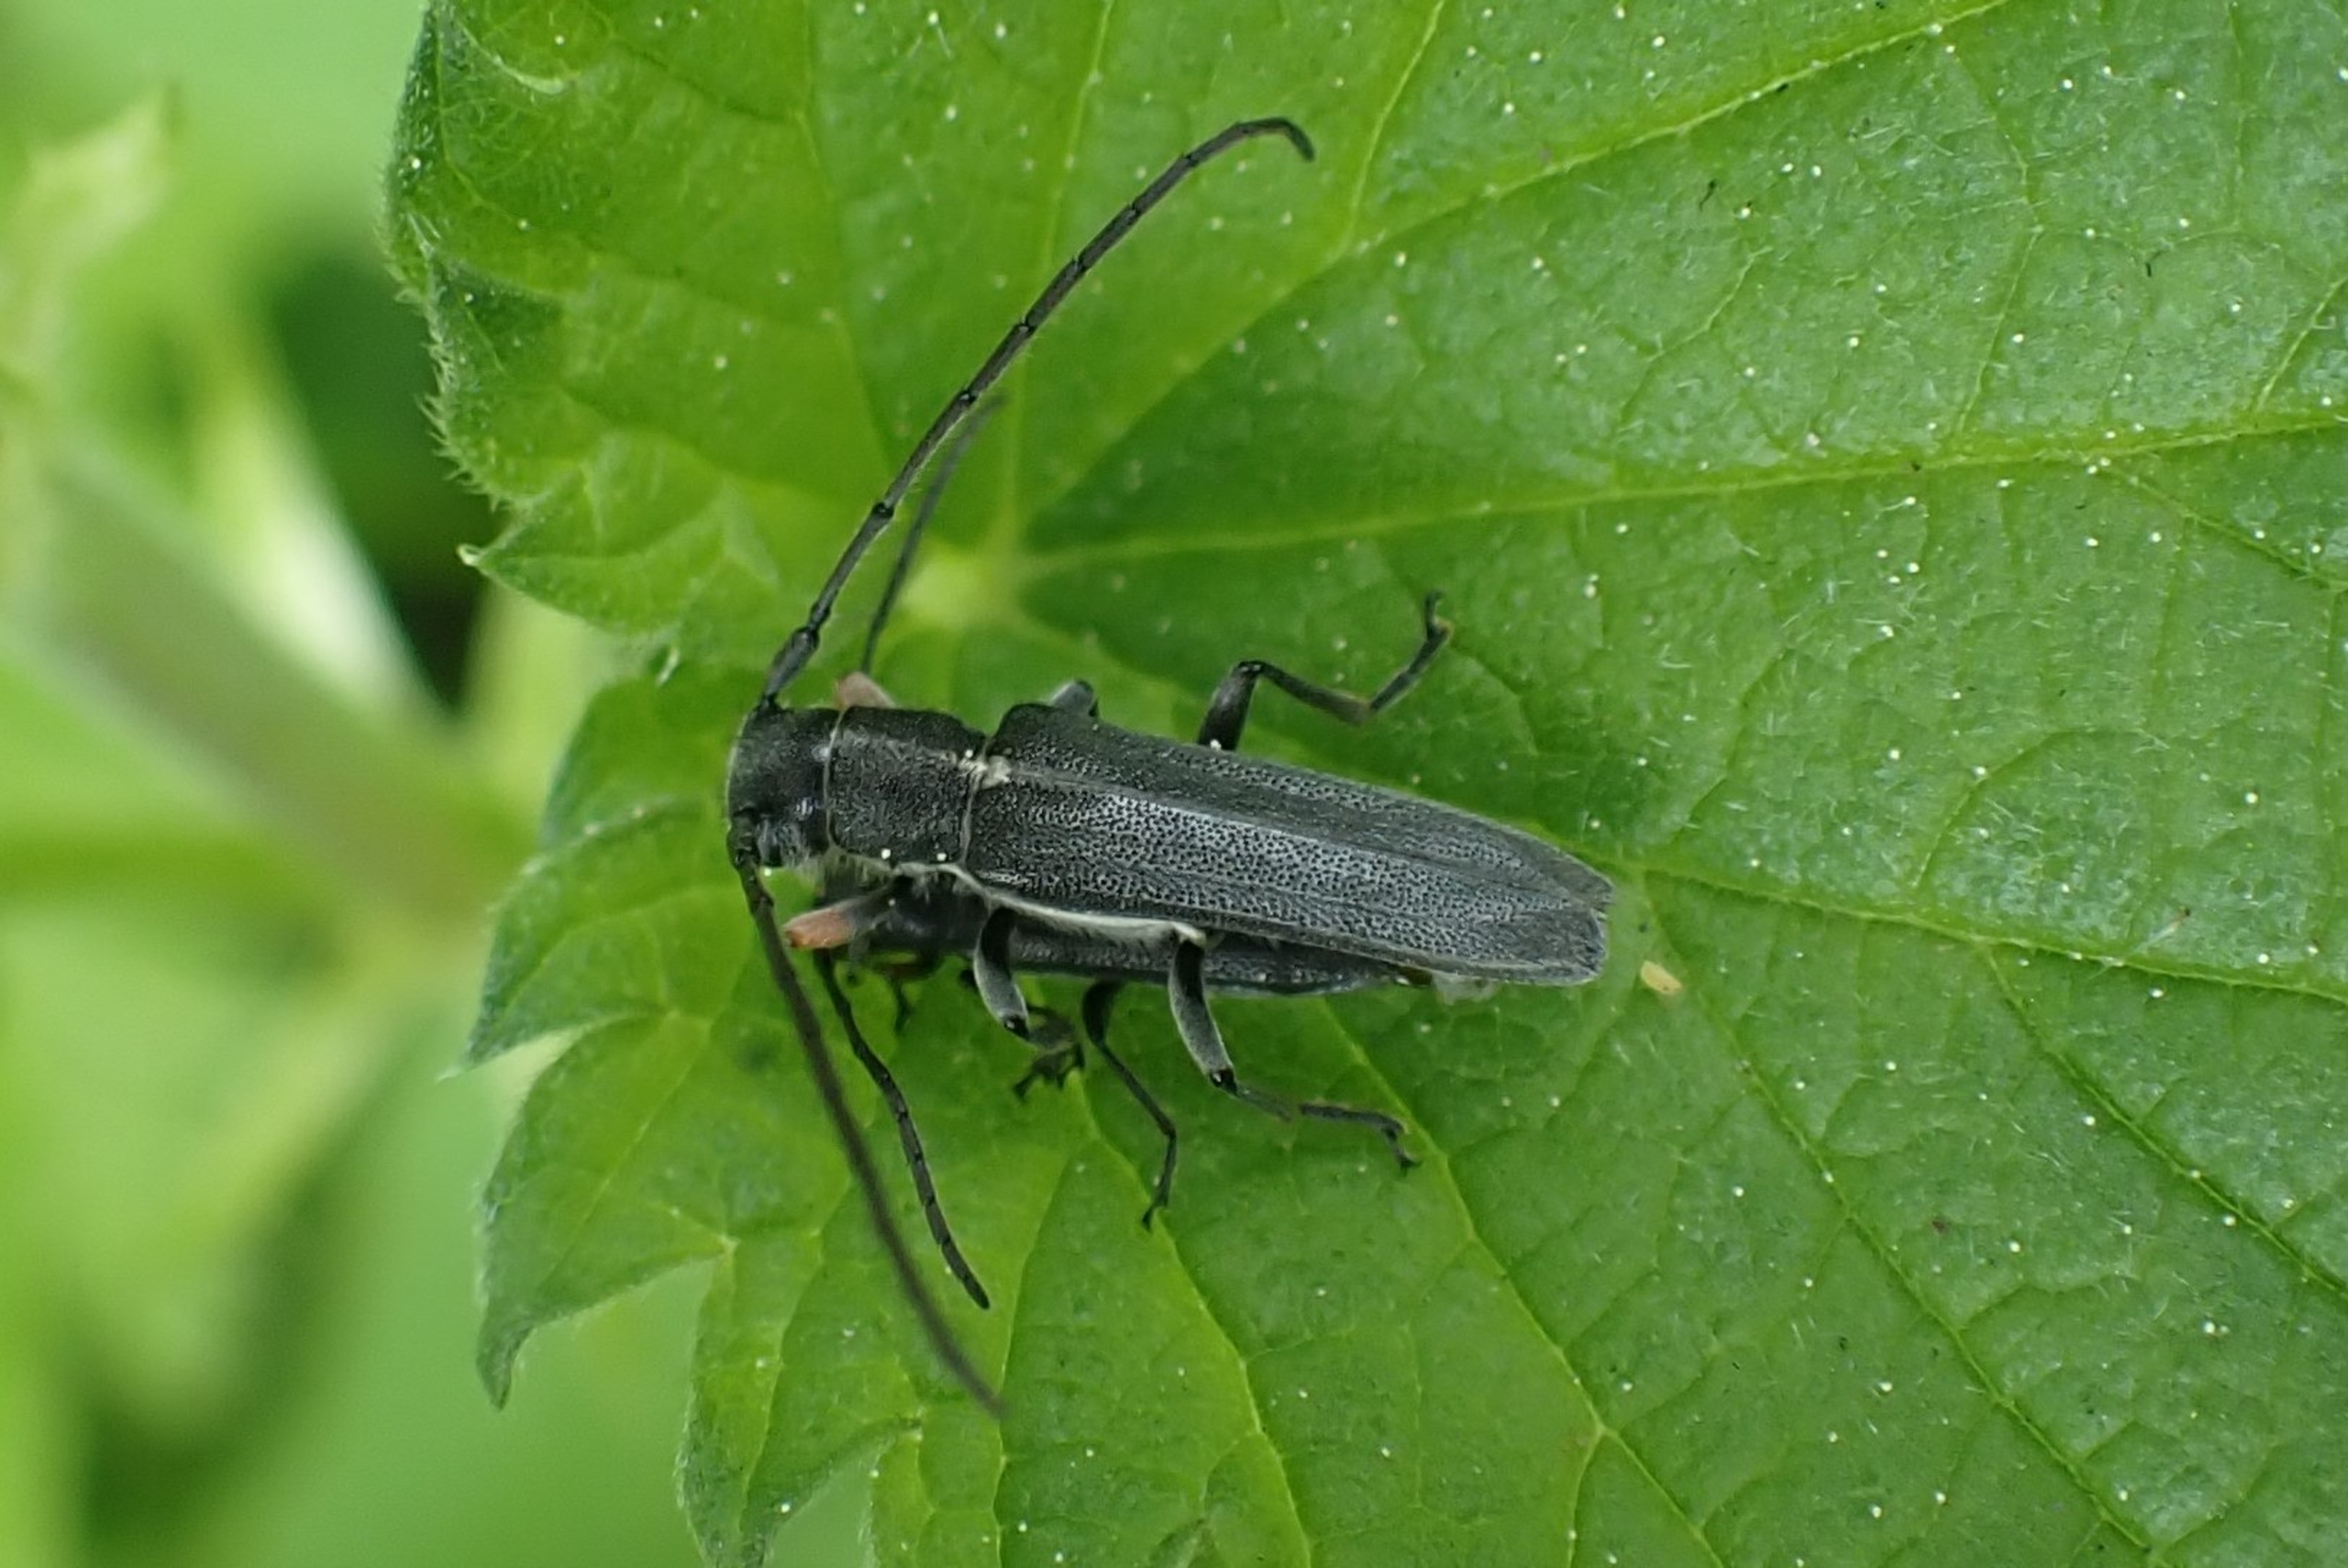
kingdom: Animalia
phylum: Arthropoda
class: Insecta
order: Coleoptera
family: Cerambycidae
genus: Phytoecia
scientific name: Phytoecia cylindrica
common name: Kørvelbuk
